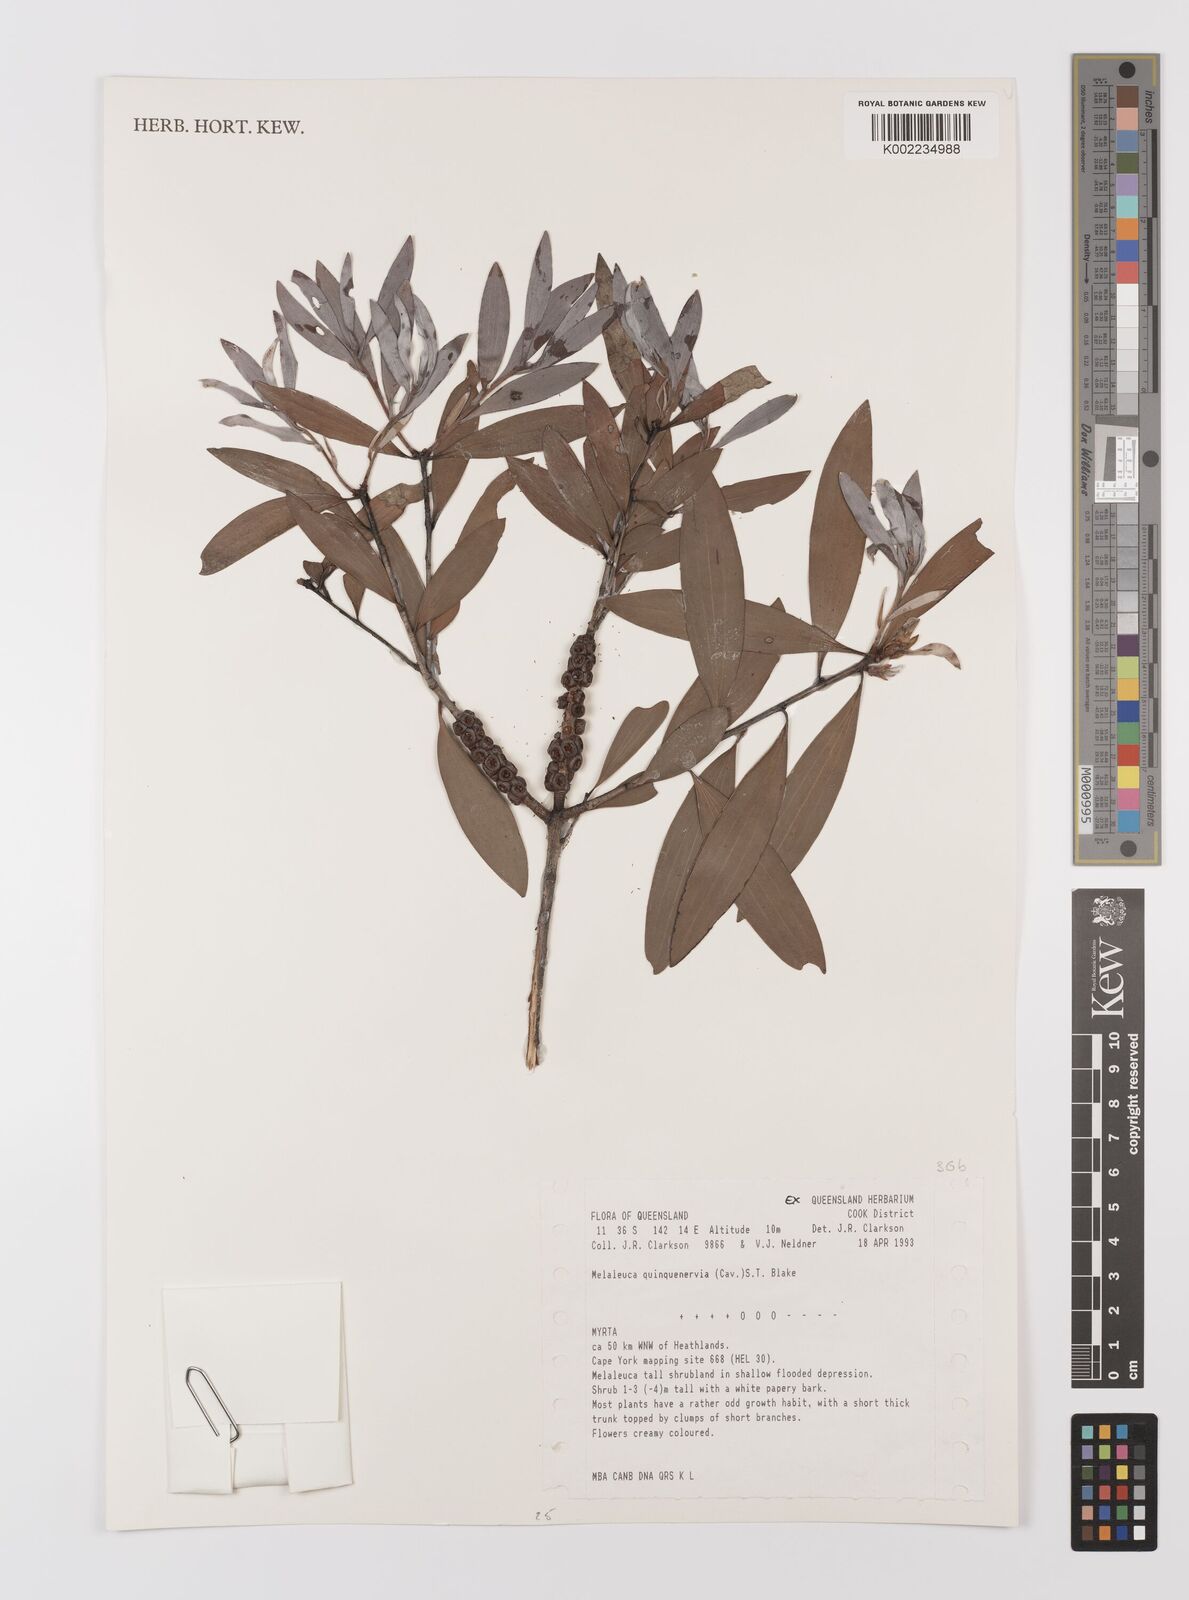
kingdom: Plantae
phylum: Tracheophyta
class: Magnoliopsida
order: Myrtales
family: Myrtaceae
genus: Melaleuca
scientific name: Melaleuca quinquenervia
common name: Punktree
